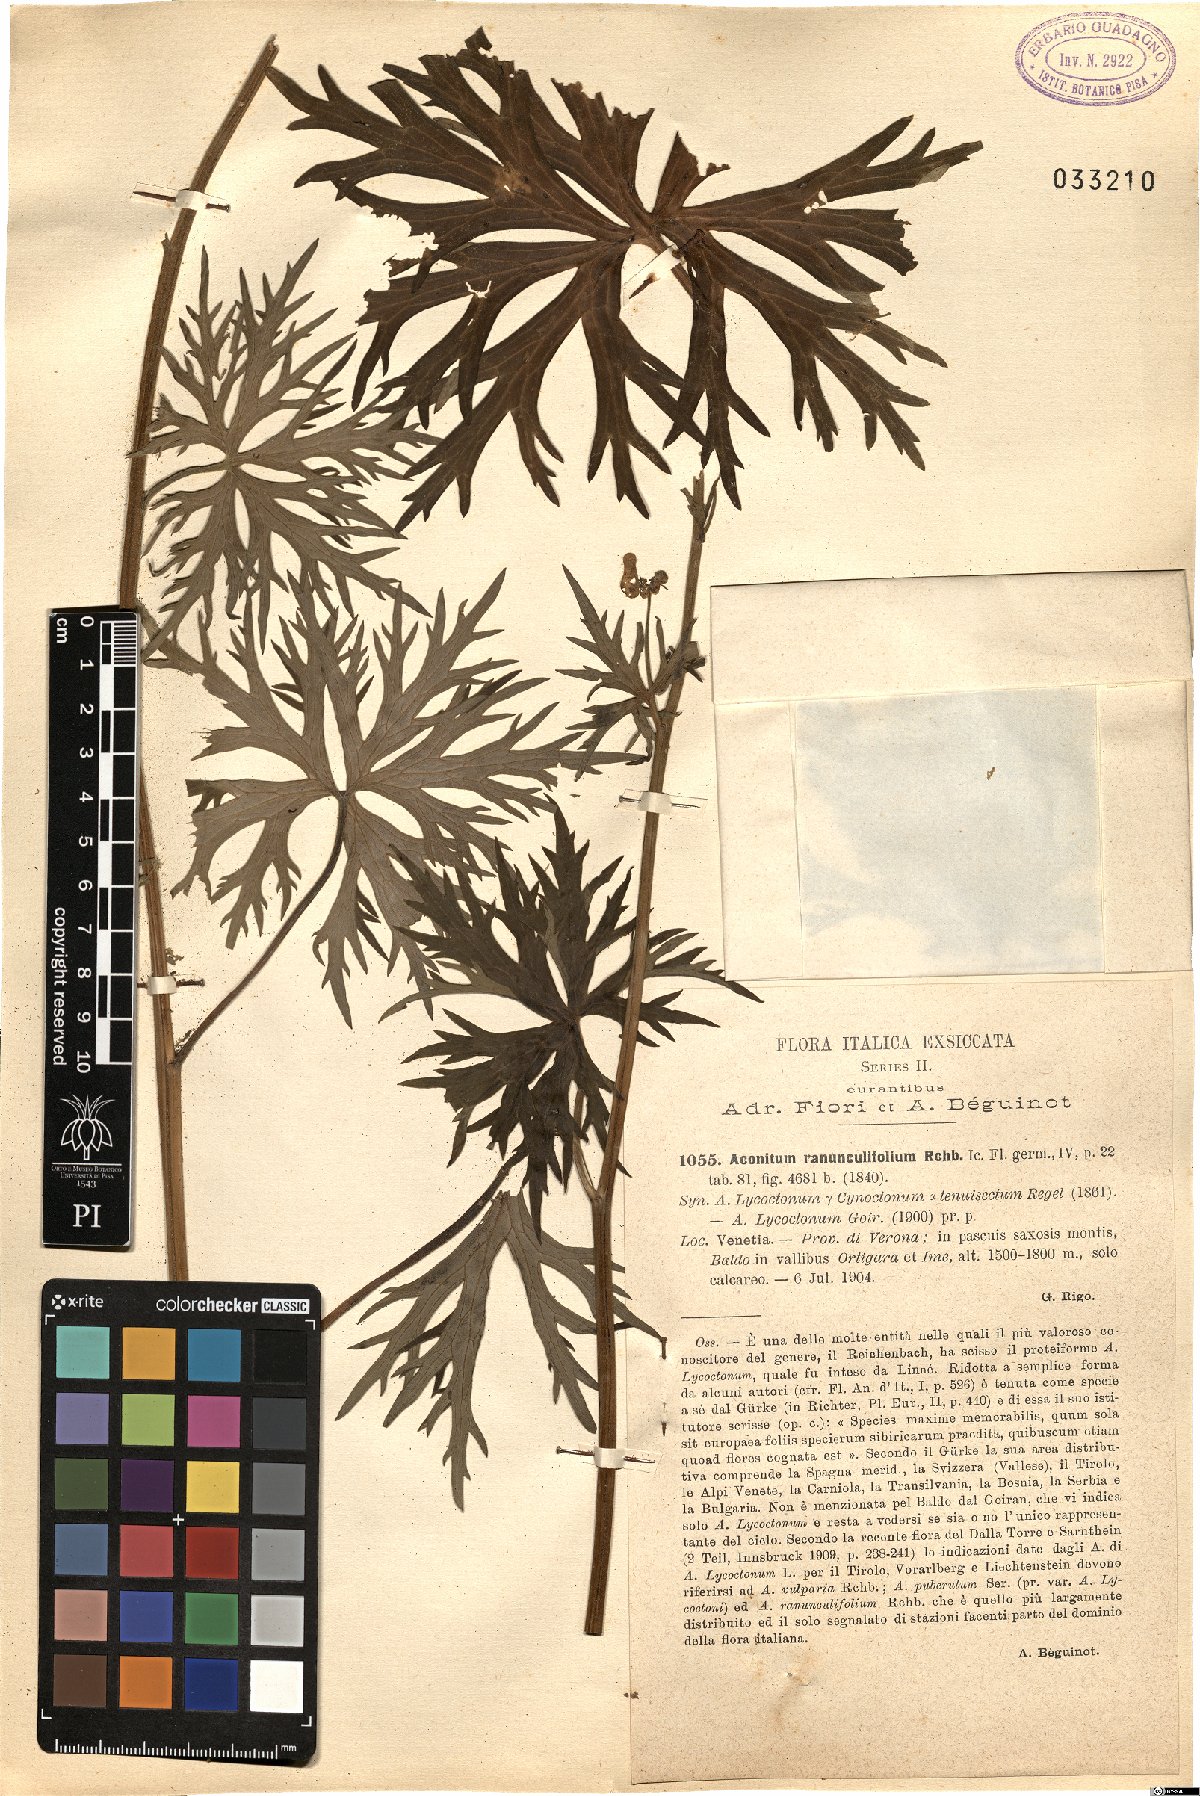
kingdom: Plantae
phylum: Tracheophyta
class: Magnoliopsida
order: Ranunculales
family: Ranunculaceae
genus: Aconitum
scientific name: Aconitum lycoctonum
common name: Wolf's-bane
